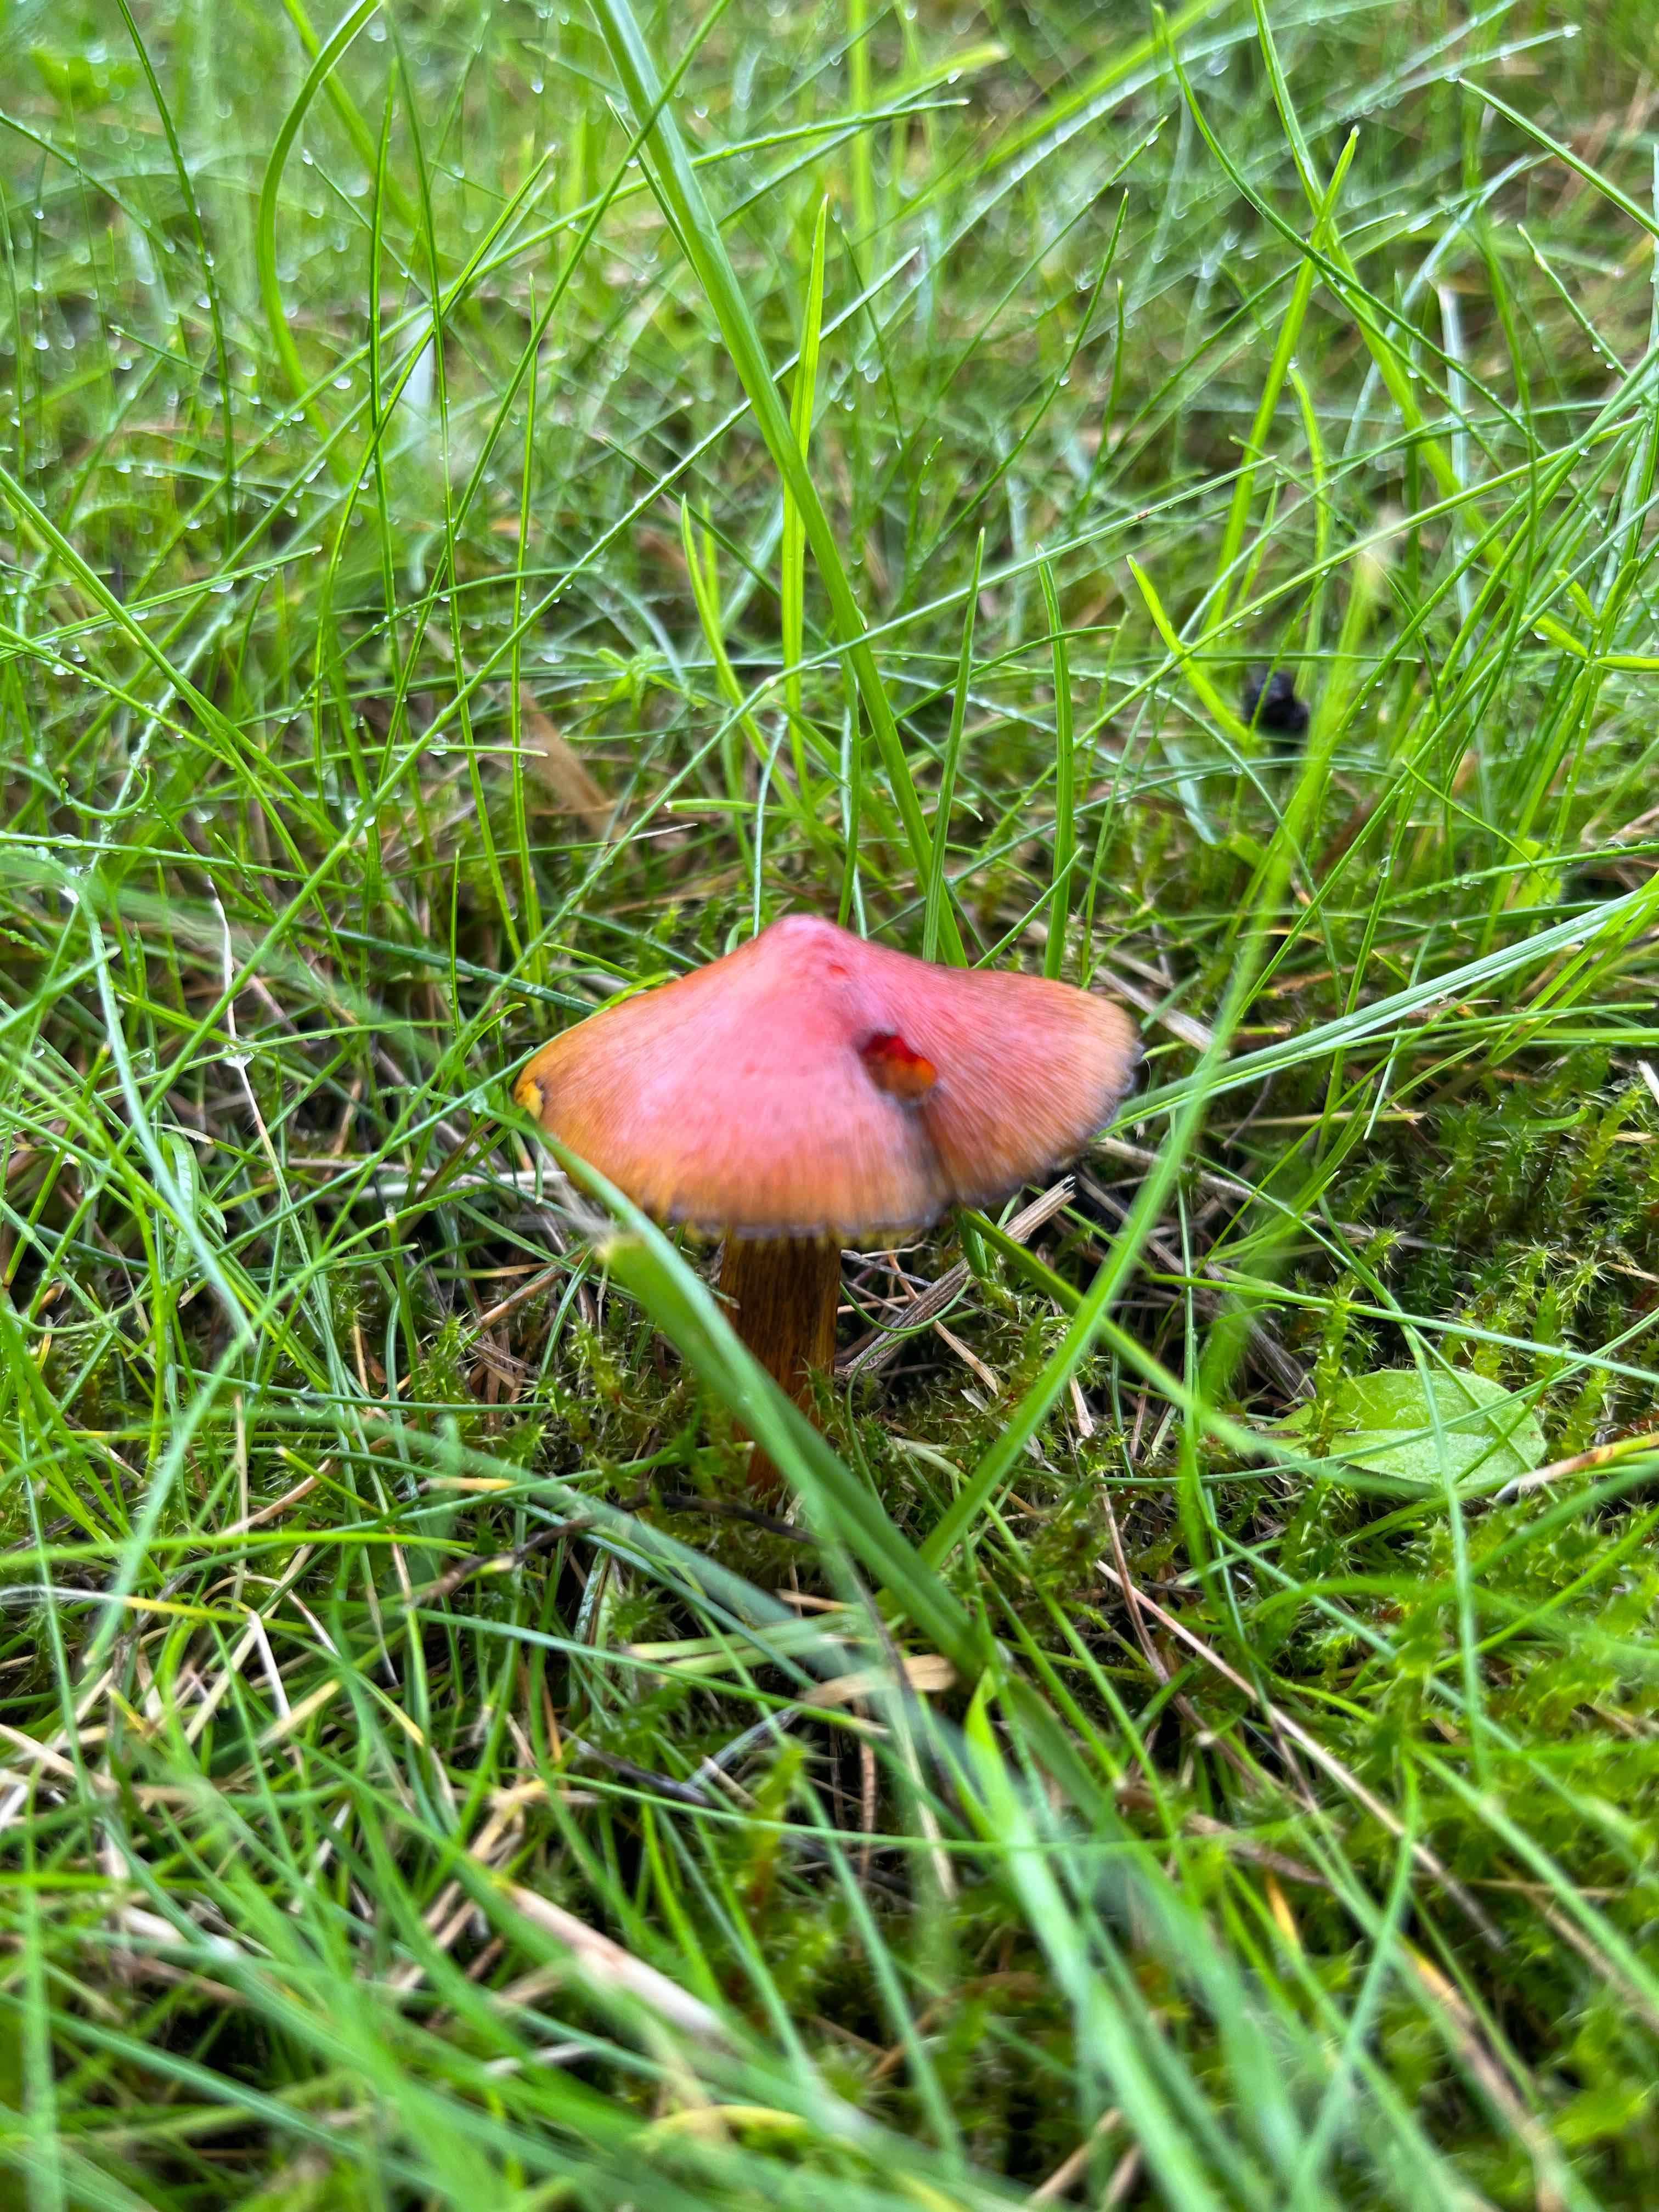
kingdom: Fungi
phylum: Basidiomycota
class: Agaricomycetes
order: Agaricales
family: Hygrophoraceae
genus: Hygrocybe
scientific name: Hygrocybe conica
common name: kegle-vokshat
